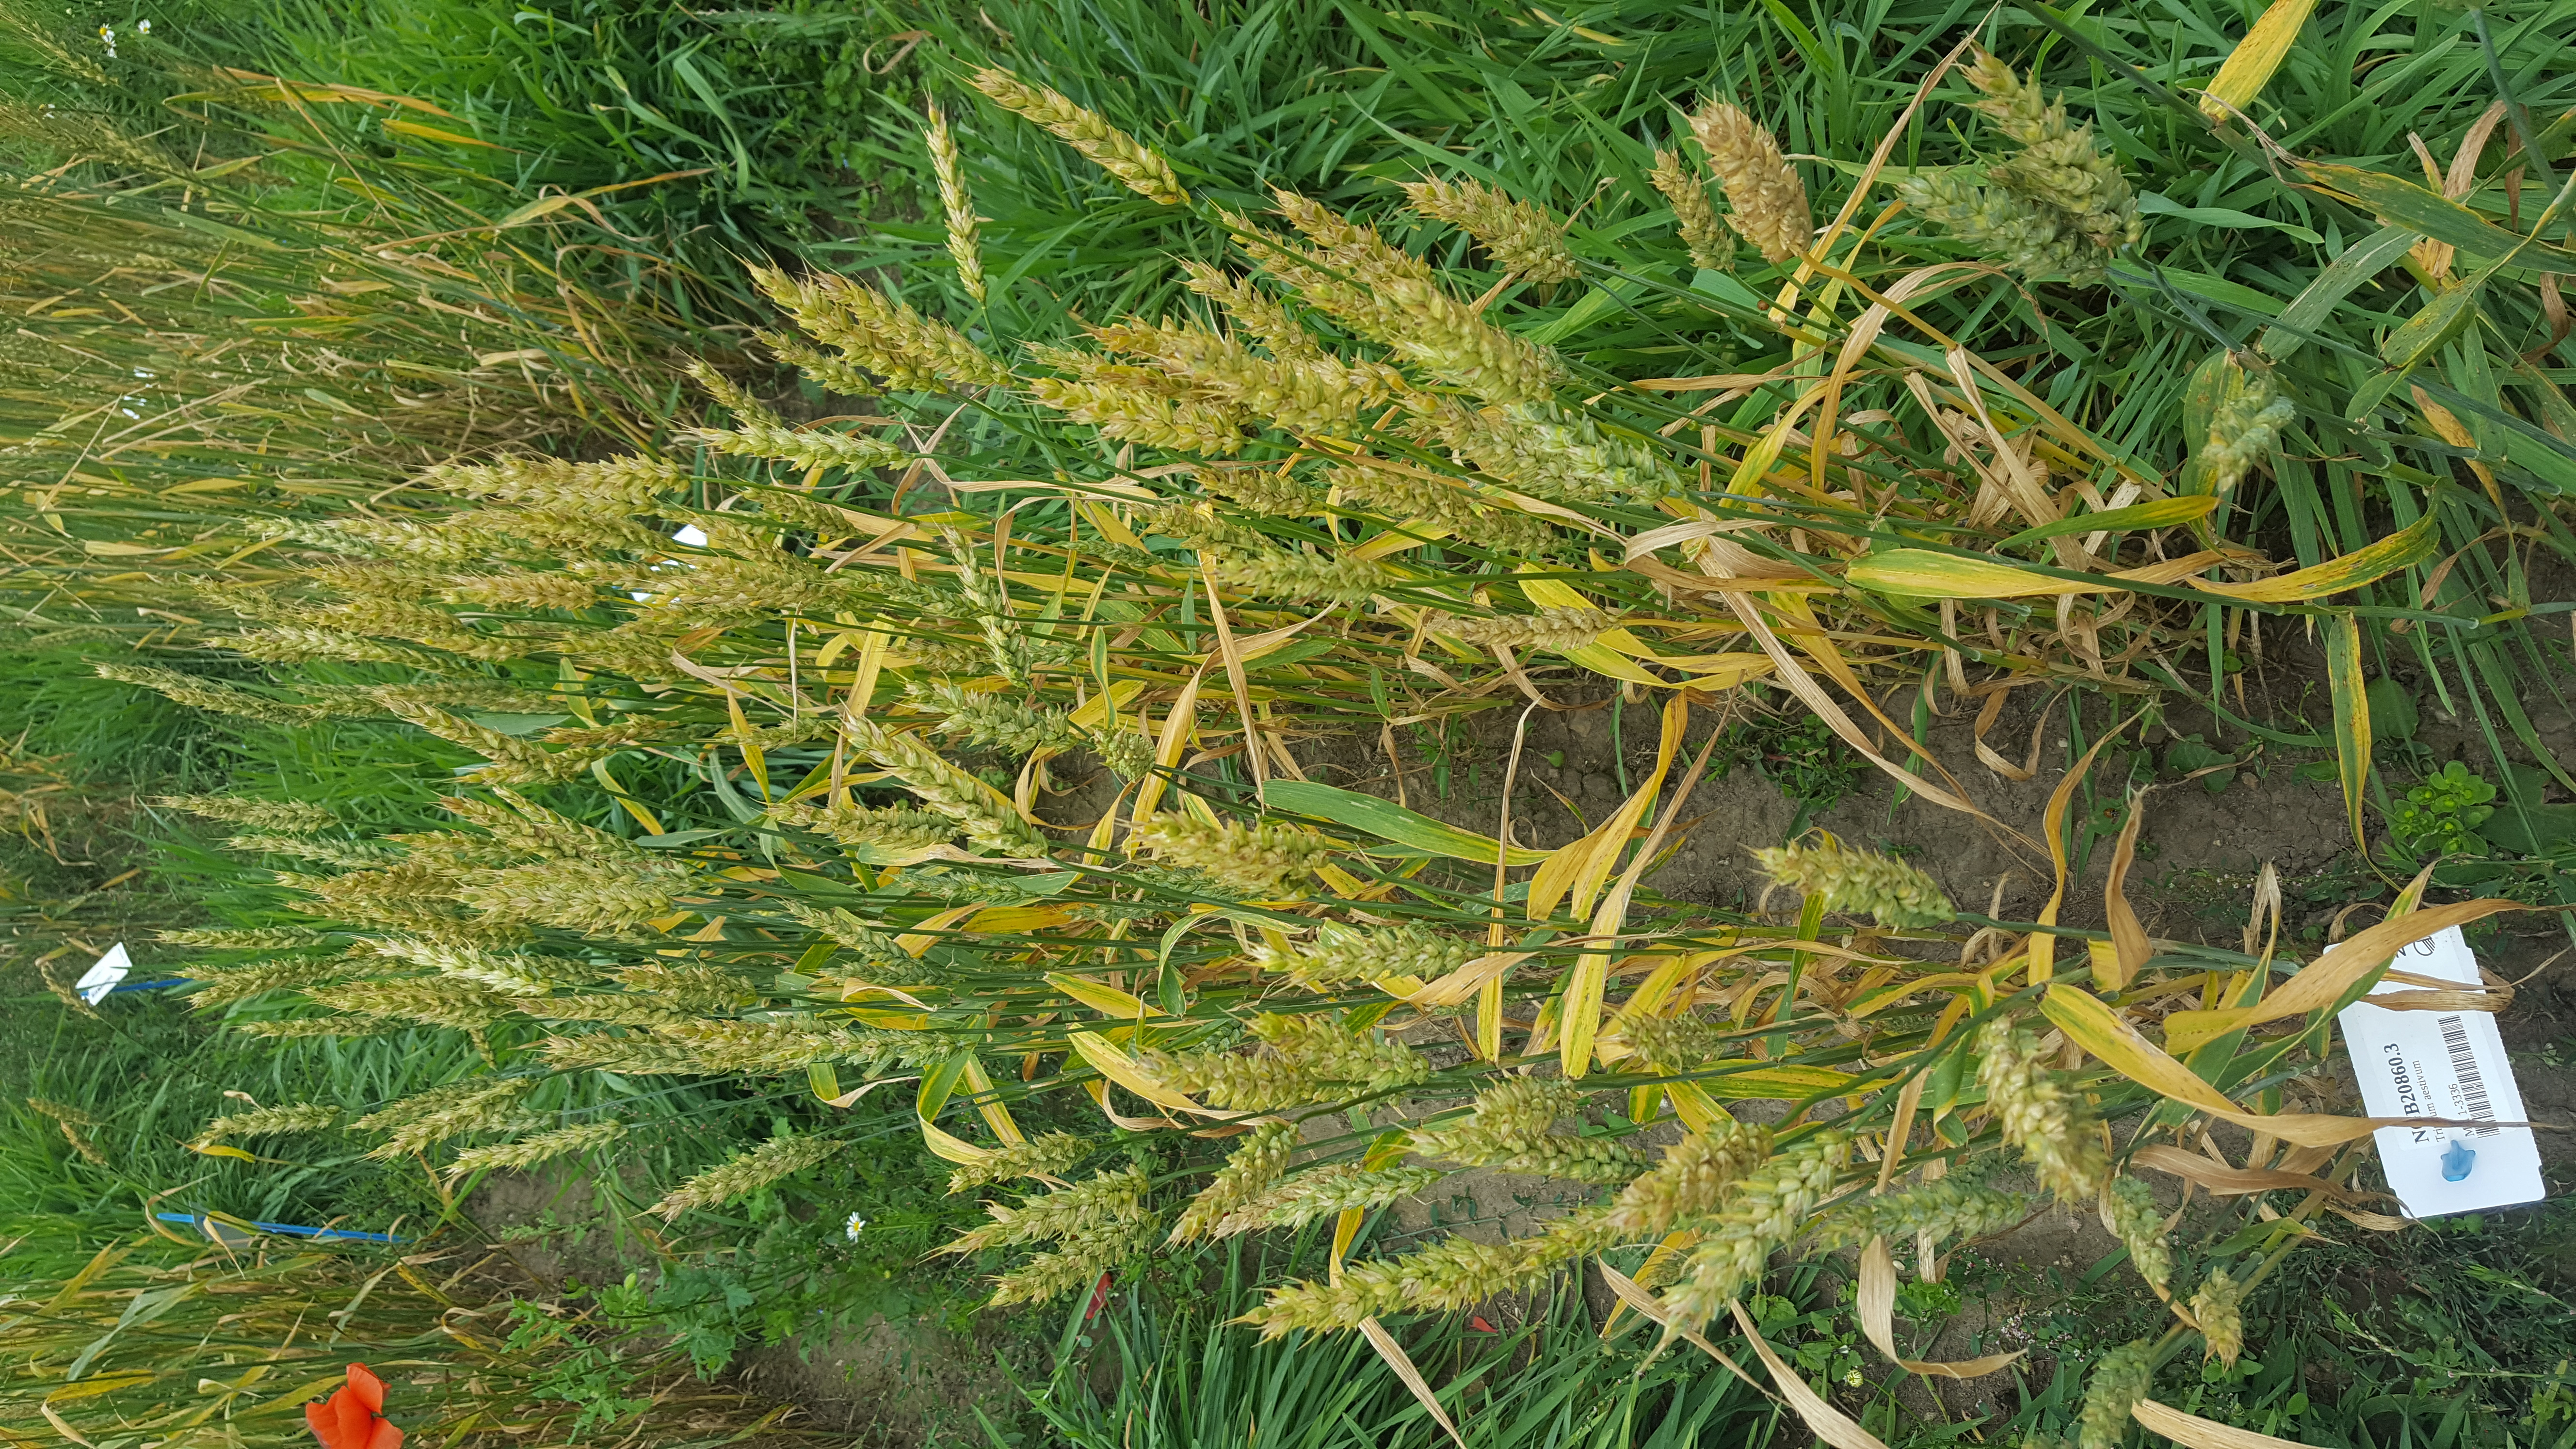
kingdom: Plantae
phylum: Tracheophyta
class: Liliopsida
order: Poales
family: Poaceae
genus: Triticum
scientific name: Triticum aestivum
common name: Common wheat
